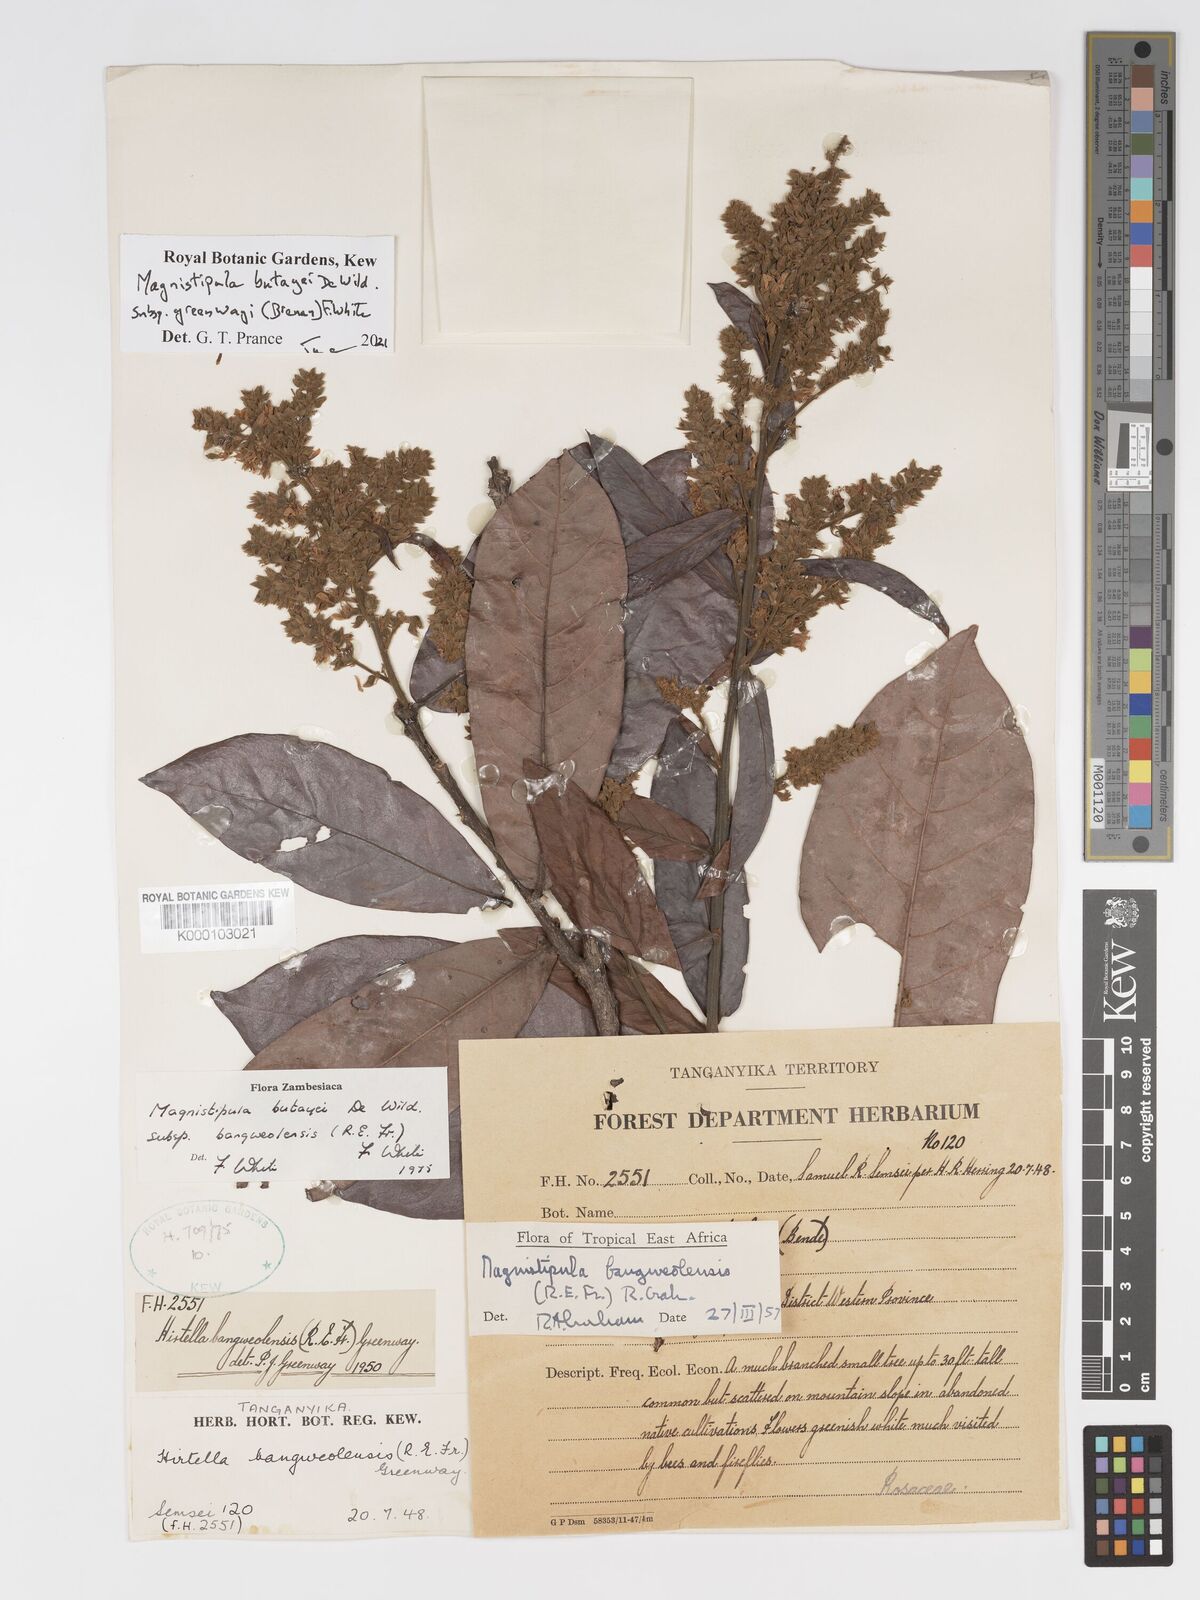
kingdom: Plantae
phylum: Tracheophyta
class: Magnoliopsida
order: Malpighiales
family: Chrysobalanaceae
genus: Magnistipula
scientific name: Magnistipula butayei
